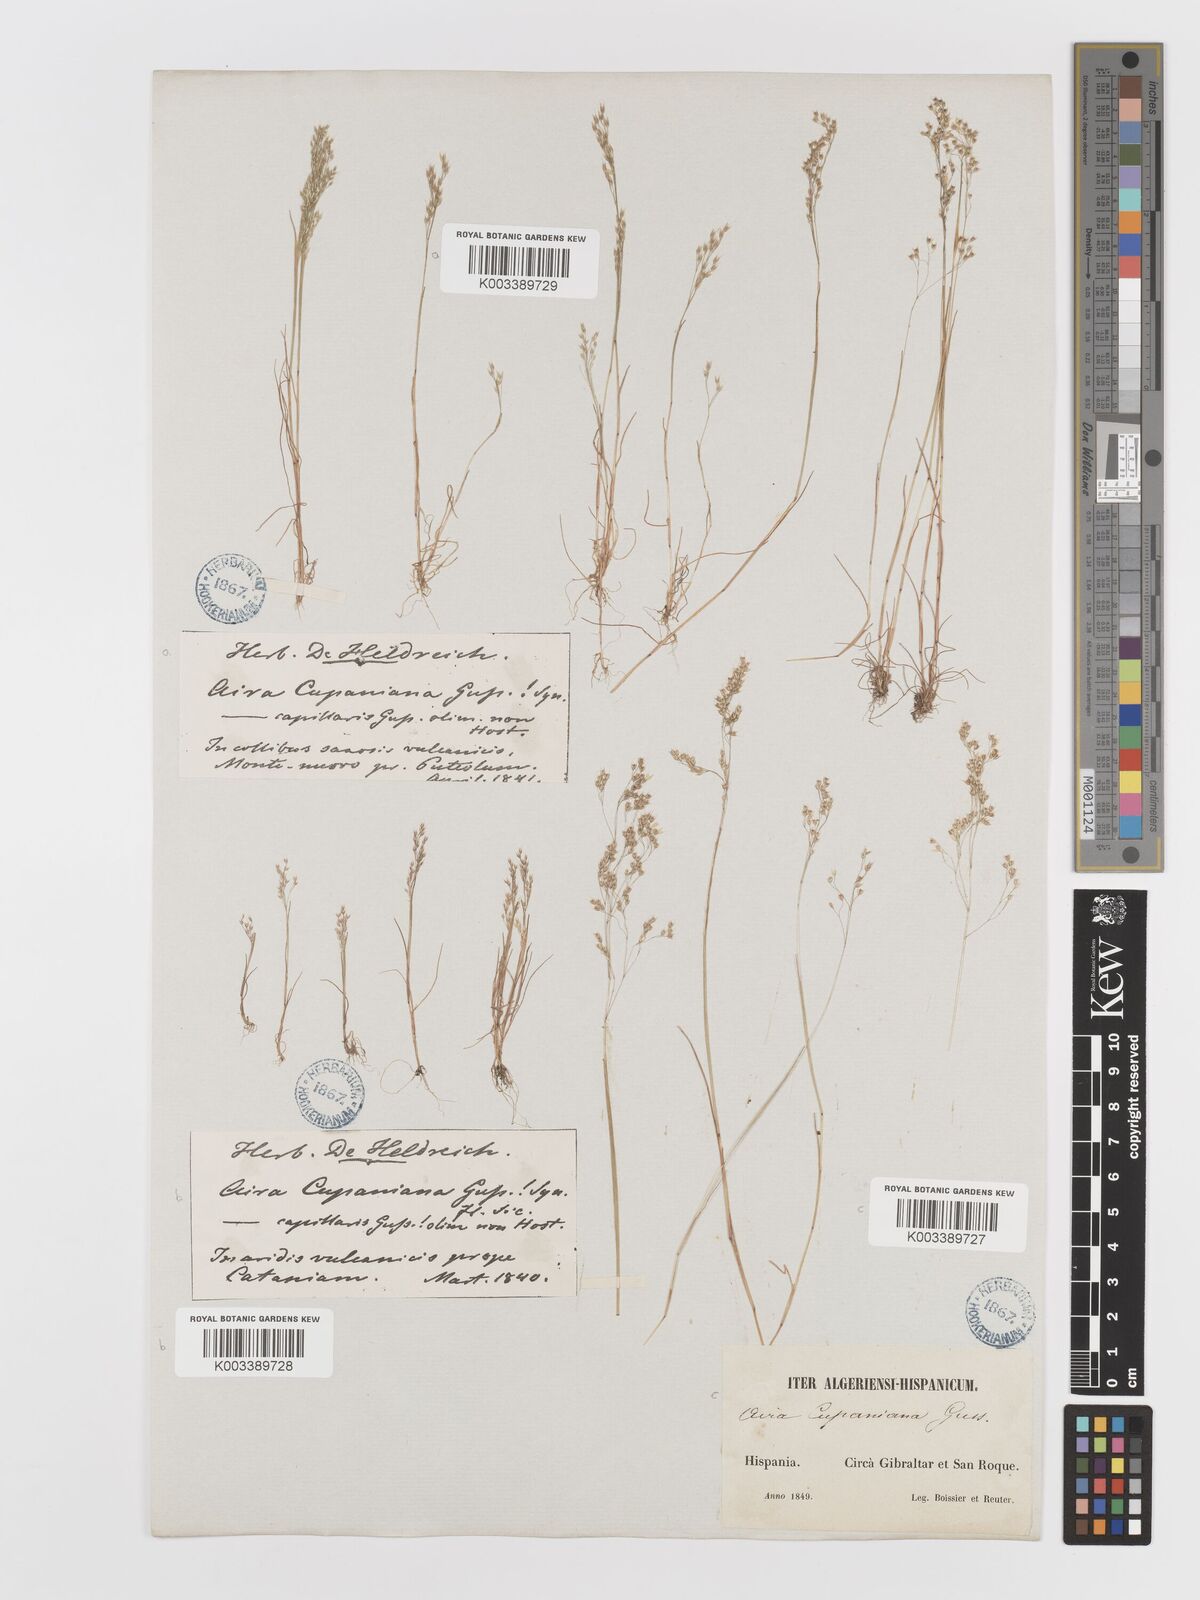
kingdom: Plantae
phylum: Tracheophyta
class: Liliopsida
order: Poales
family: Poaceae
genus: Aira
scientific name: Aira caryophyllea
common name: Silver hairgrass
